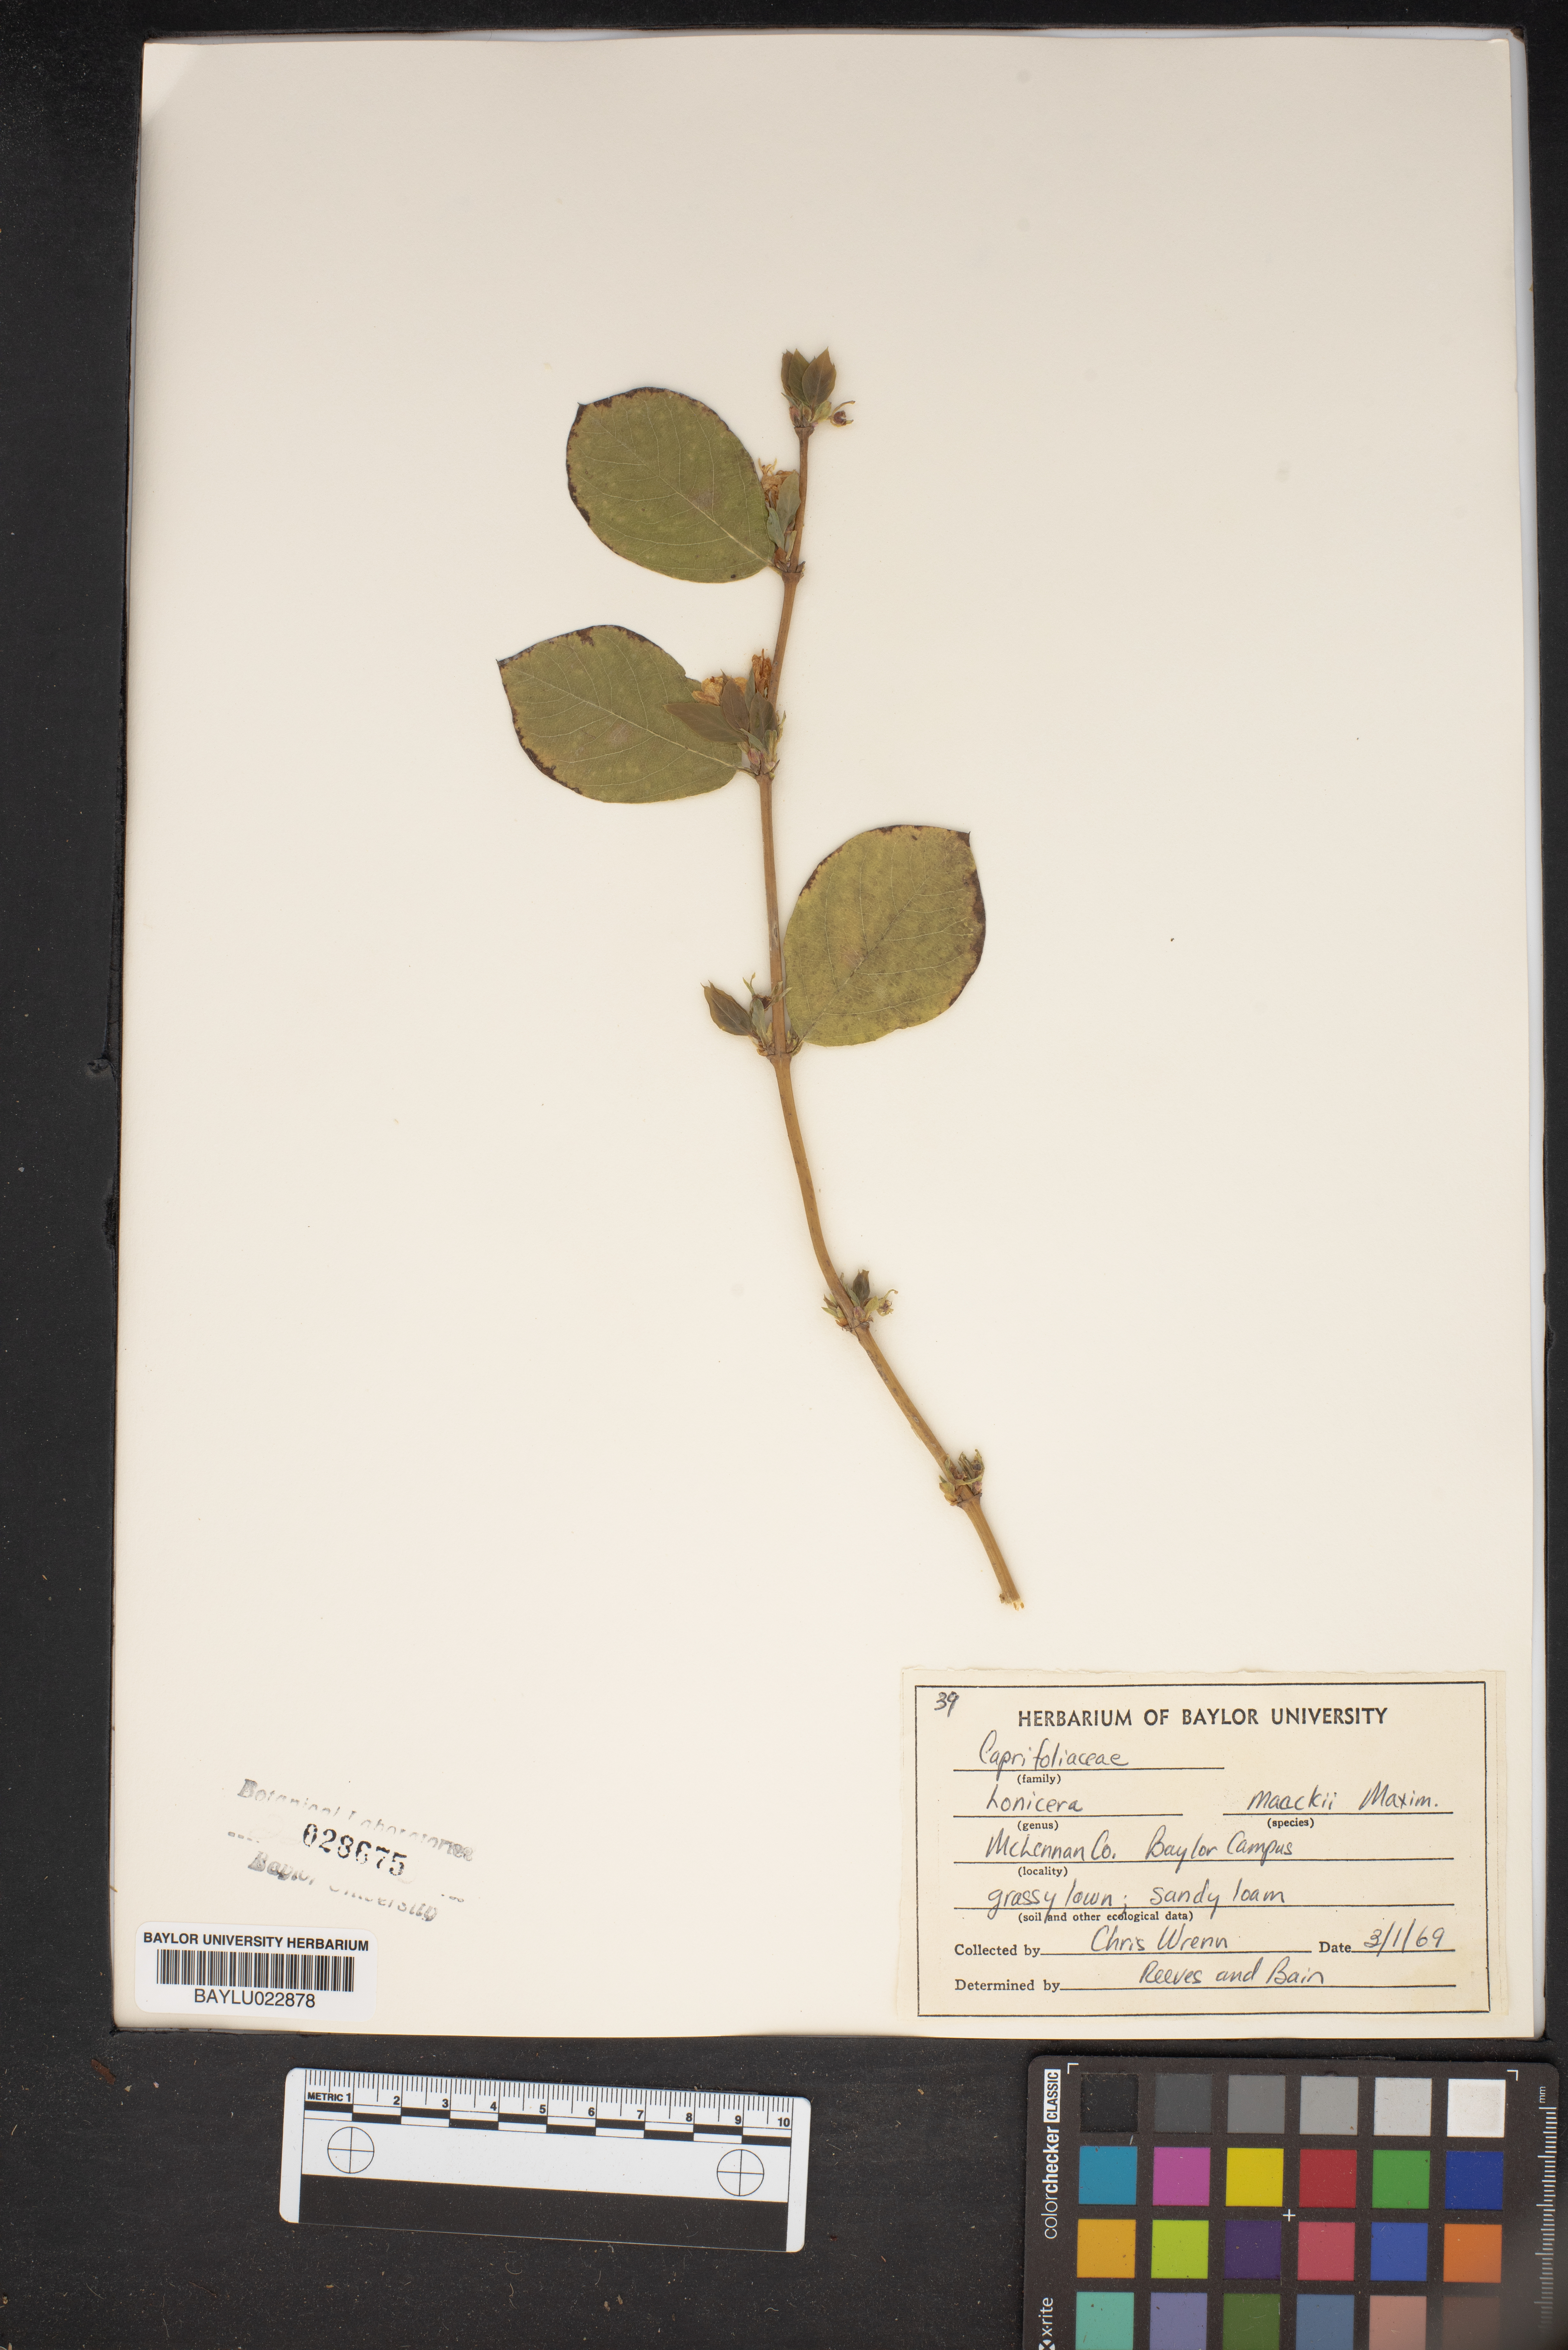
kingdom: Plantae
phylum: Tracheophyta
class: Magnoliopsida
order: Dipsacales
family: Caprifoliaceae
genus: Lonicera
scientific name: Lonicera maackii
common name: Amur honeysuckle
